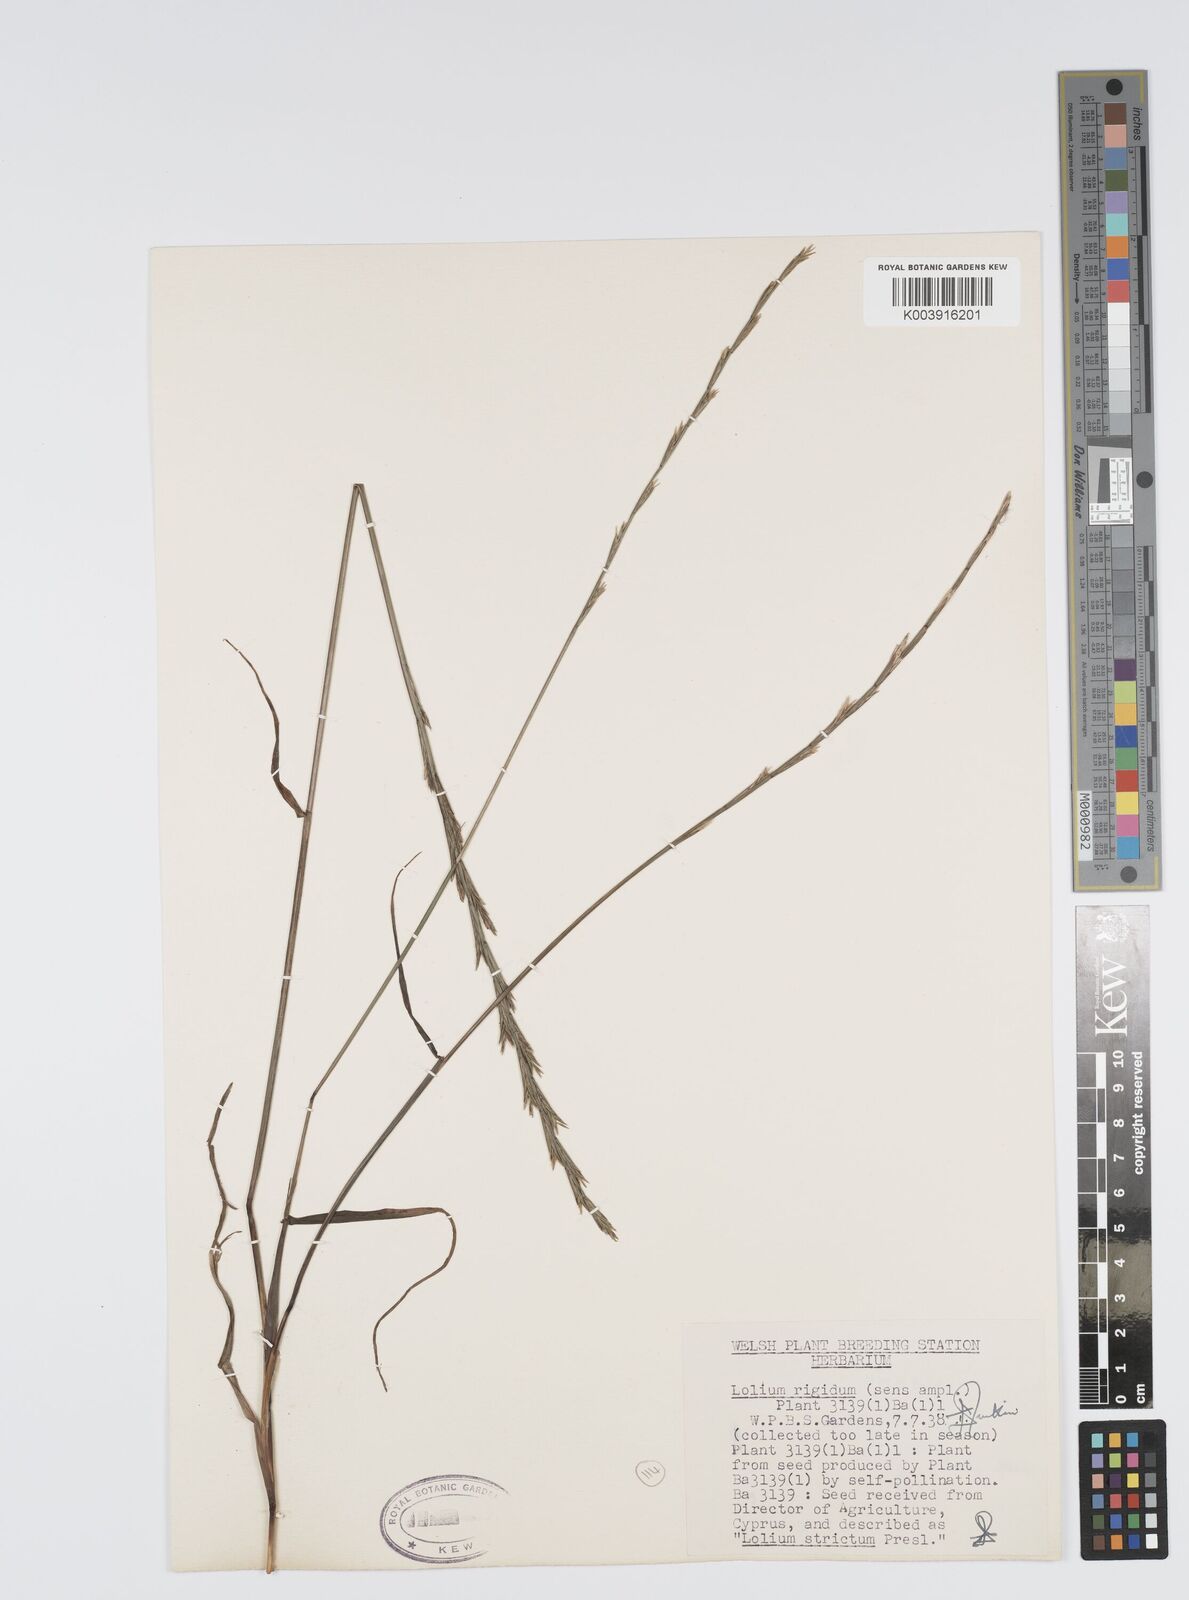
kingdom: Plantae
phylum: Tracheophyta
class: Liliopsida
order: Poales
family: Poaceae
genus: Lolium
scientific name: Lolium rigidum
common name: Wimmera ryegrass
